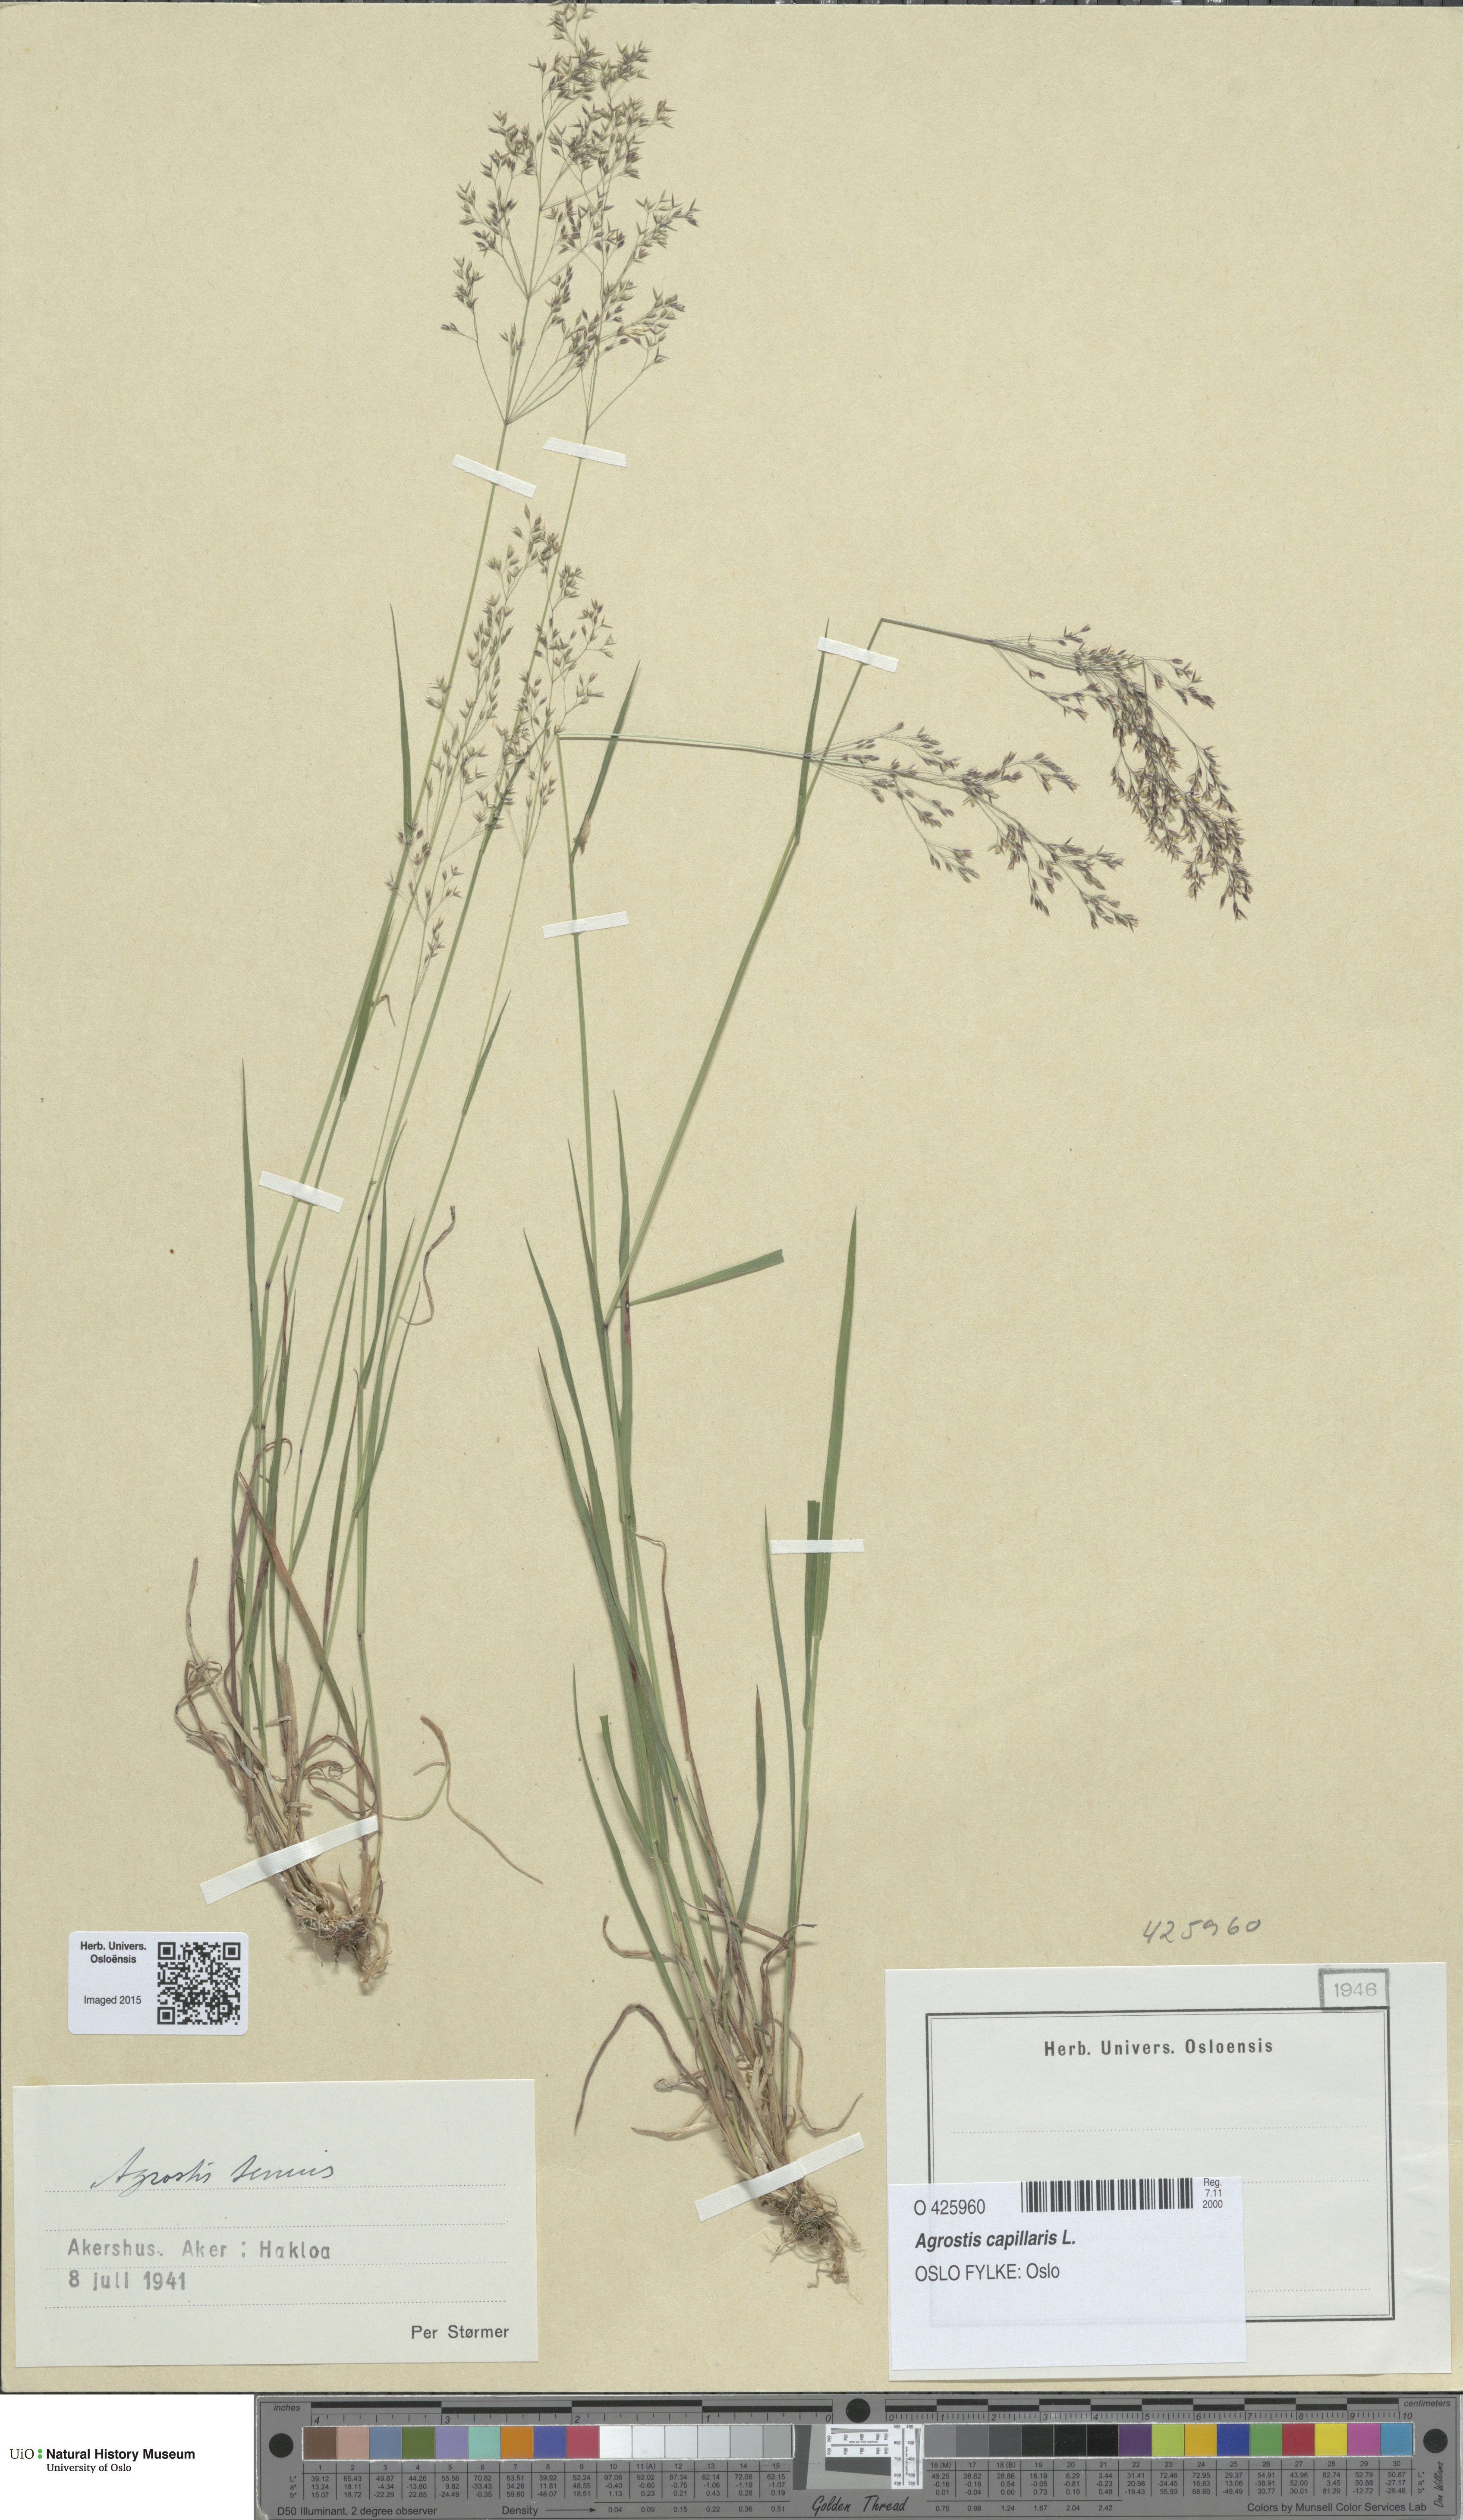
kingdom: Plantae
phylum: Tracheophyta
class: Liliopsida
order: Poales
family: Poaceae
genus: Agrostis
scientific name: Agrostis capillaris
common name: Colonial bentgrass
